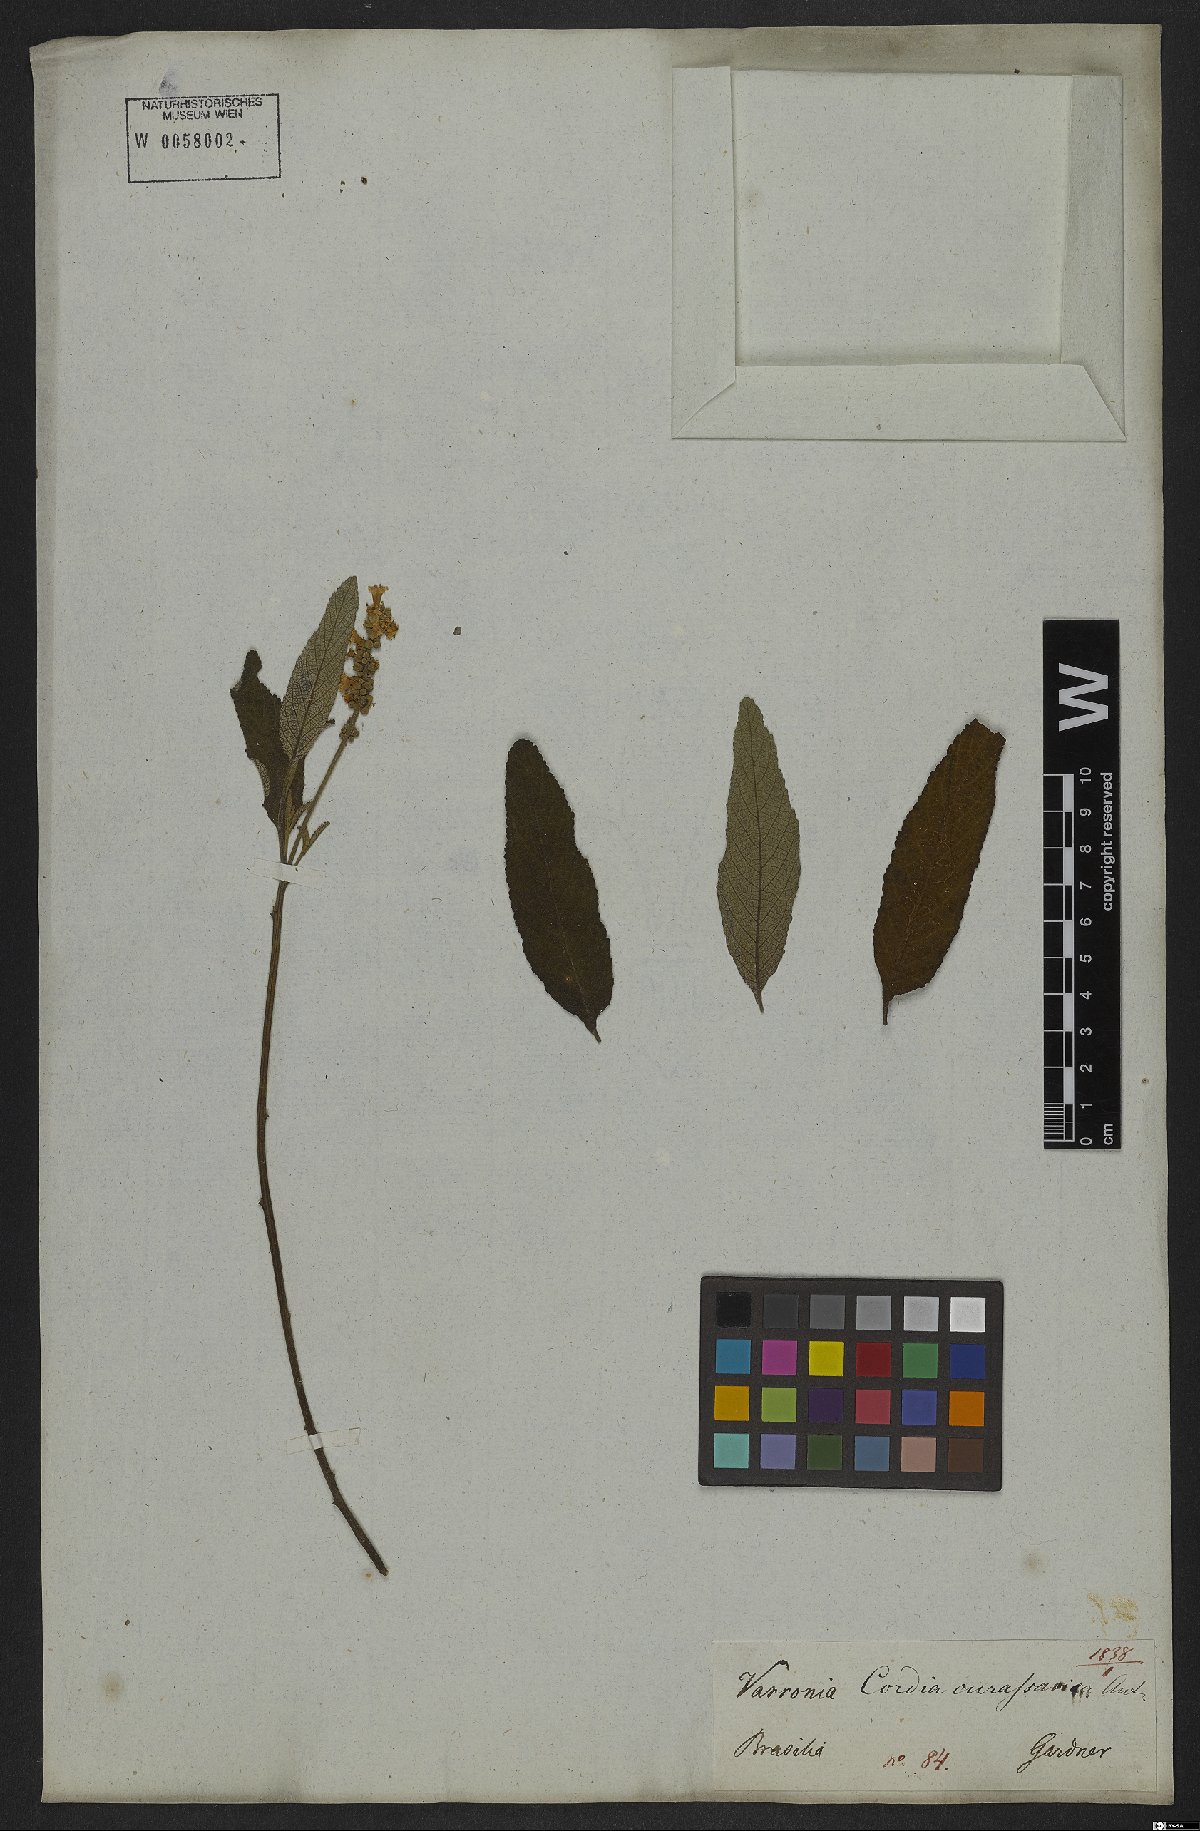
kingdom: Plantae
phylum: Tracheophyta
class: Magnoliopsida
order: Boraginales
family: Cordiaceae
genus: Varronia
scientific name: Varronia curassavica
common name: Black sage
